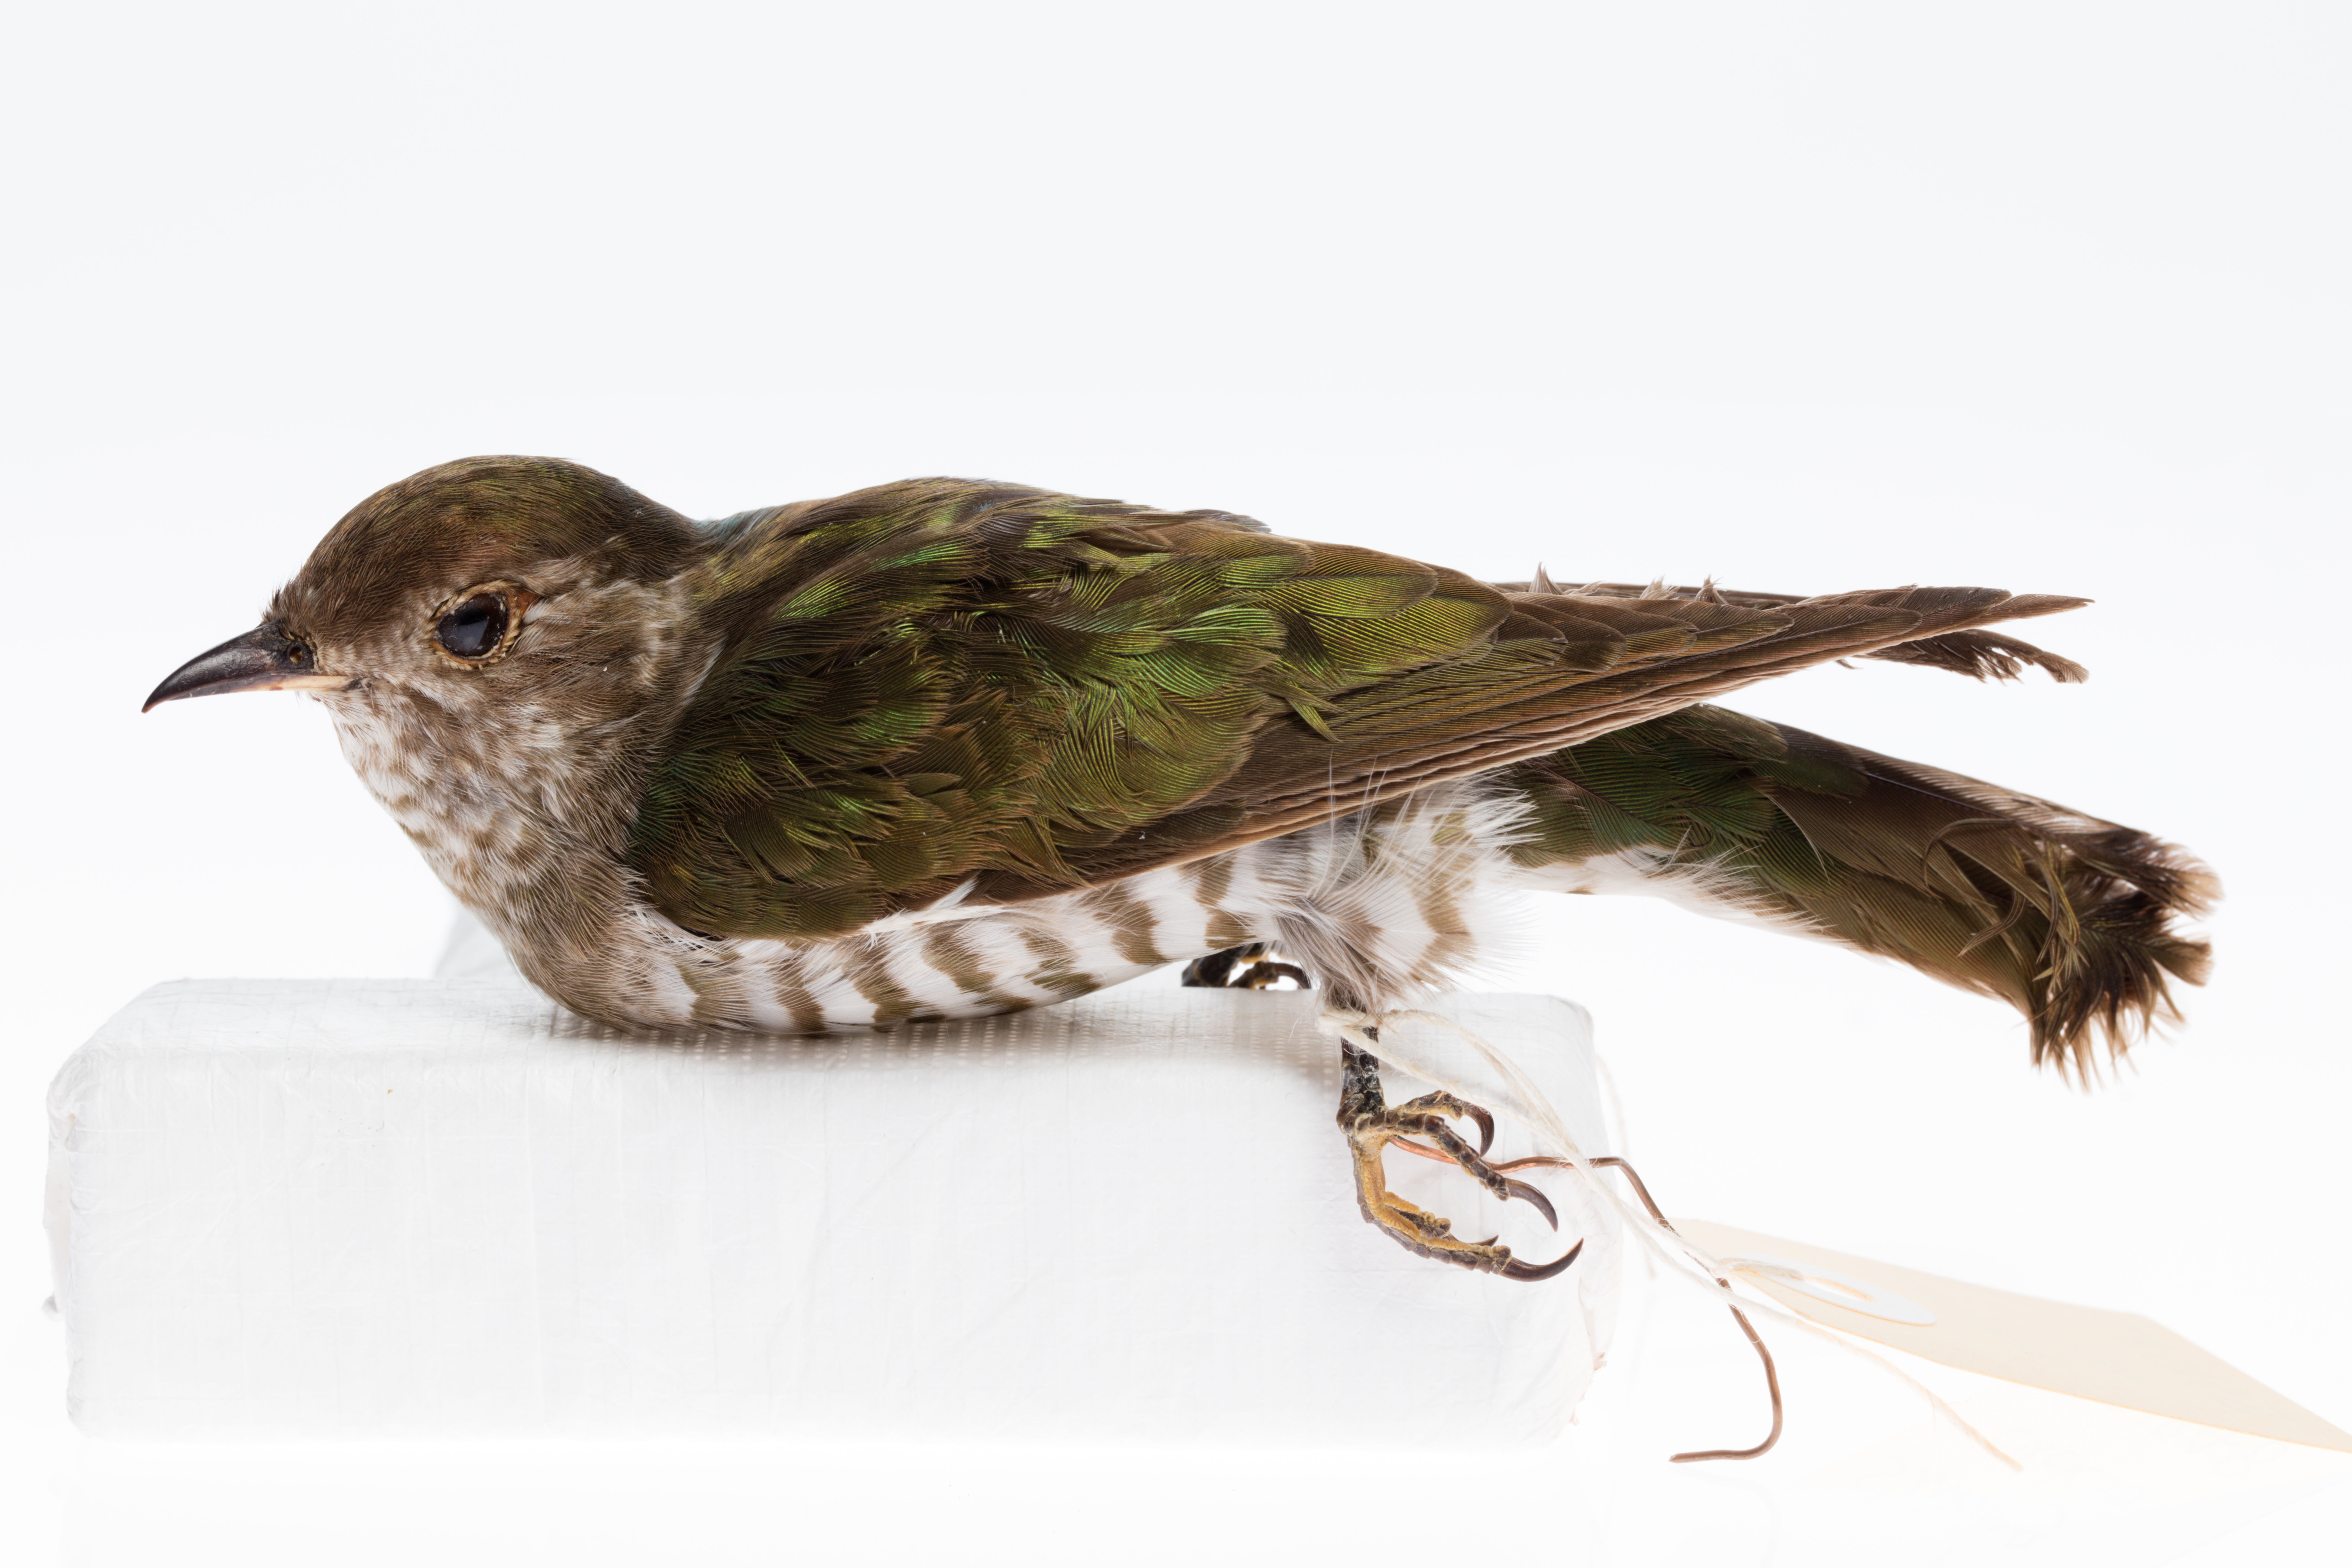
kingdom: Animalia
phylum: Chordata
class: Aves
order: Cuculiformes
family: Cuculidae
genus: Chrysococcyx
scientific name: Chrysococcyx lucidus
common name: Shining bronze cuckoo
